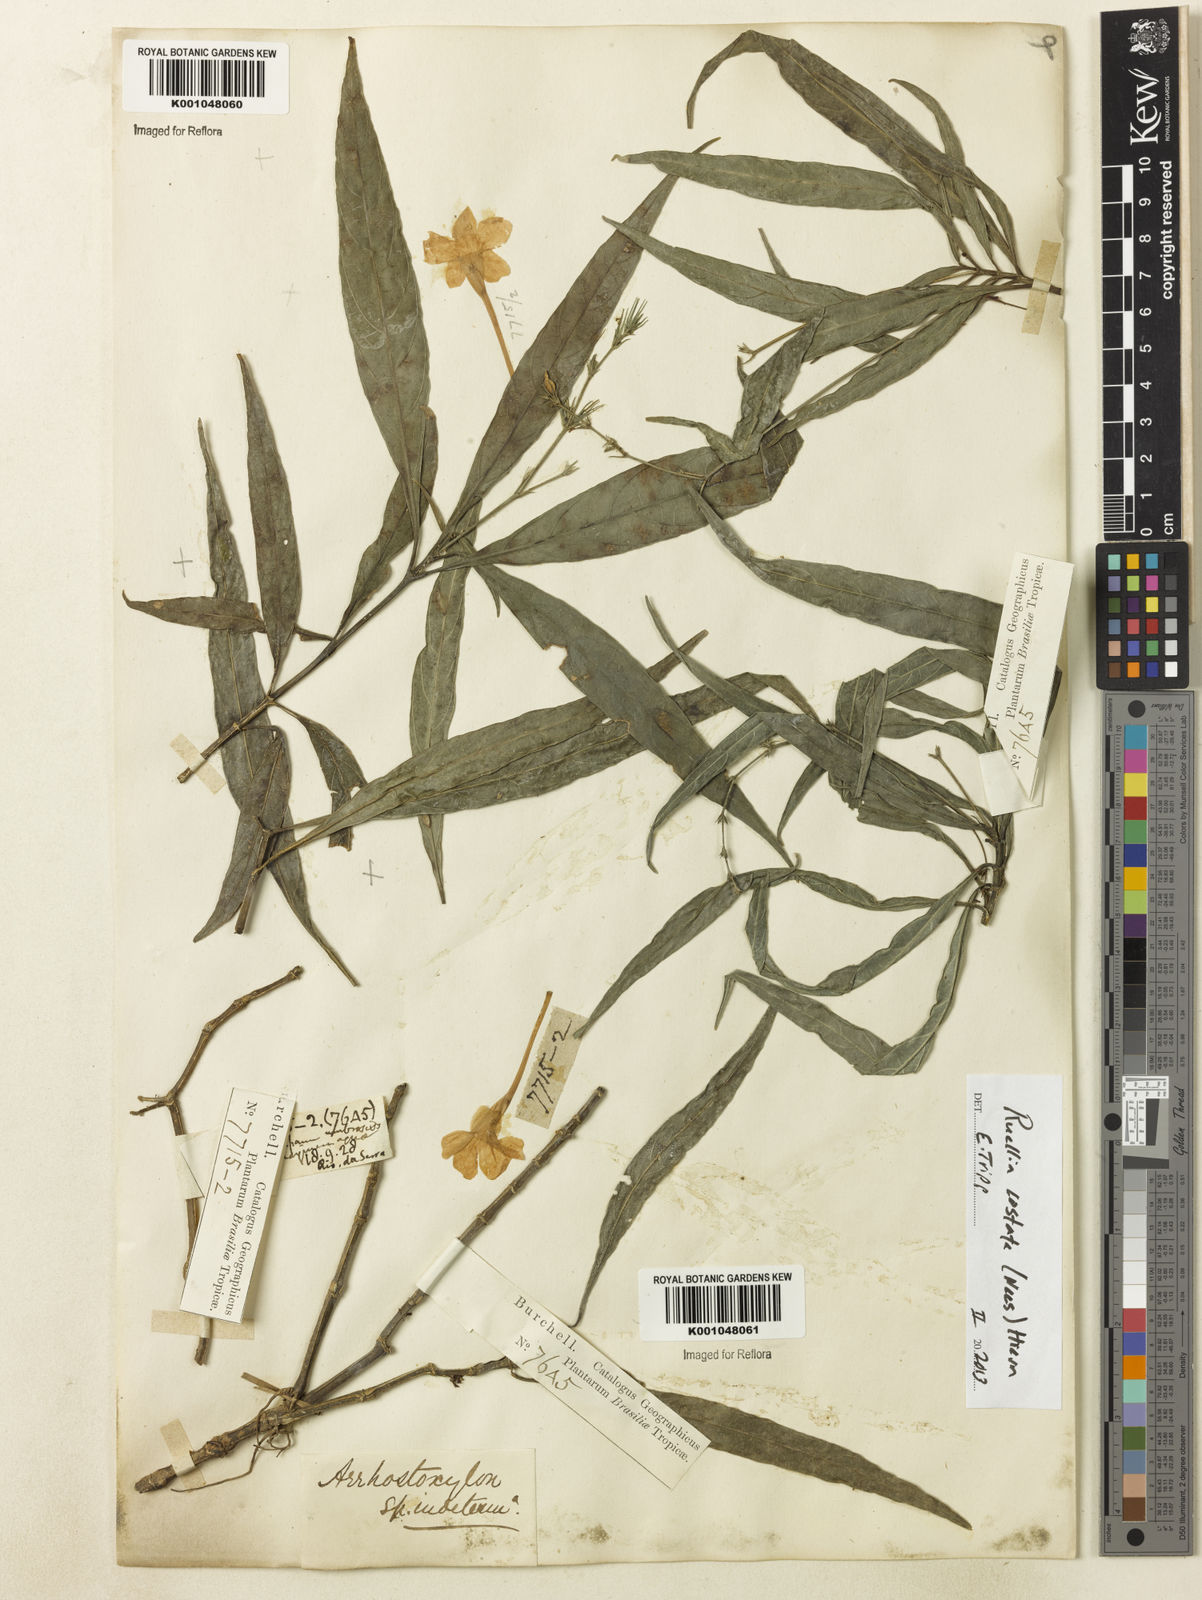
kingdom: Plantae
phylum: Tracheophyta
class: Magnoliopsida
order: Lamiales
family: Acanthaceae
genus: Ruellia
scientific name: Ruellia costata
